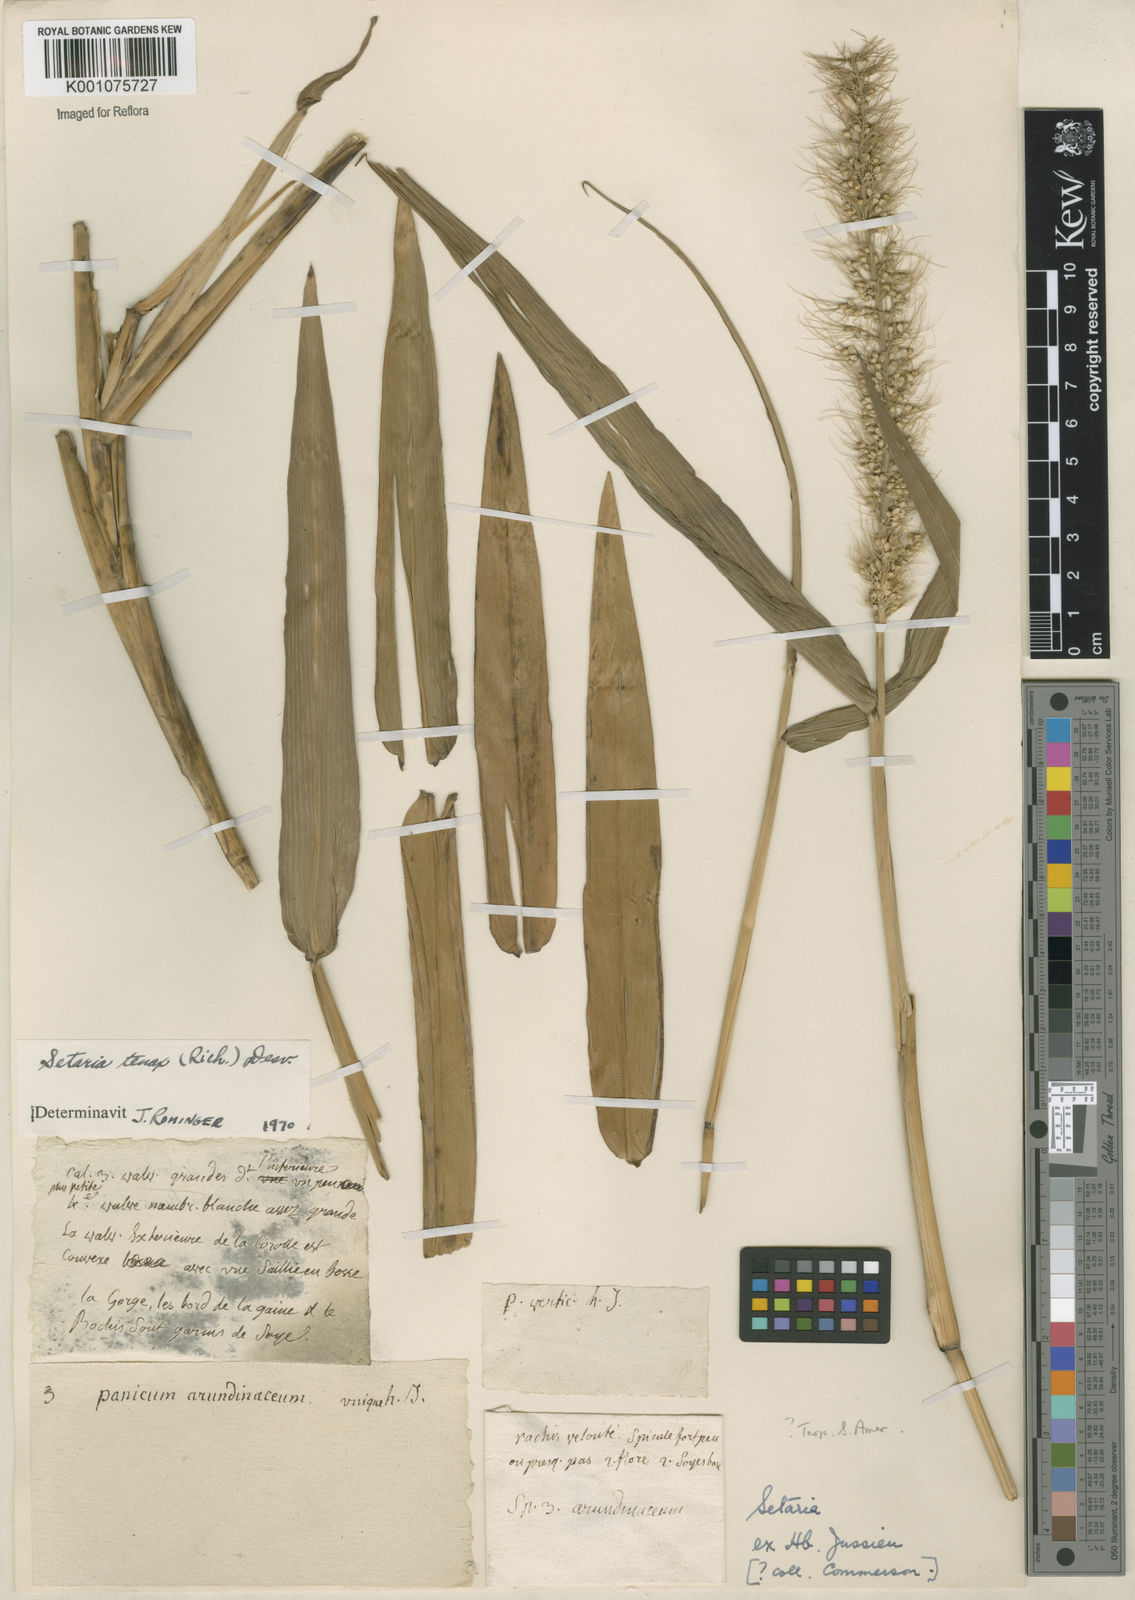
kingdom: Plantae
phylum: Tracheophyta
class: Liliopsida
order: Poales
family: Poaceae
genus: Setaria
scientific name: Setaria tenax
